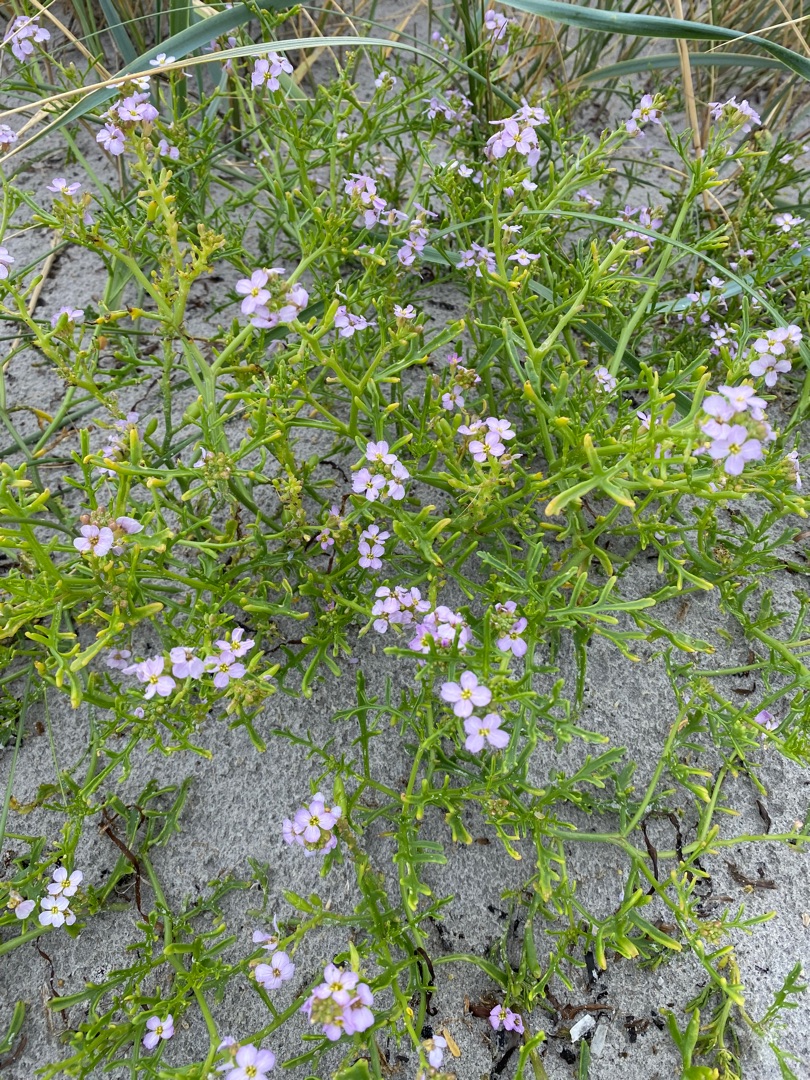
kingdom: Plantae
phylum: Tracheophyta
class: Magnoliopsida
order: Brassicales
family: Brassicaceae
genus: Cakile
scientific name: Cakile maritima
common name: Strandsennep
